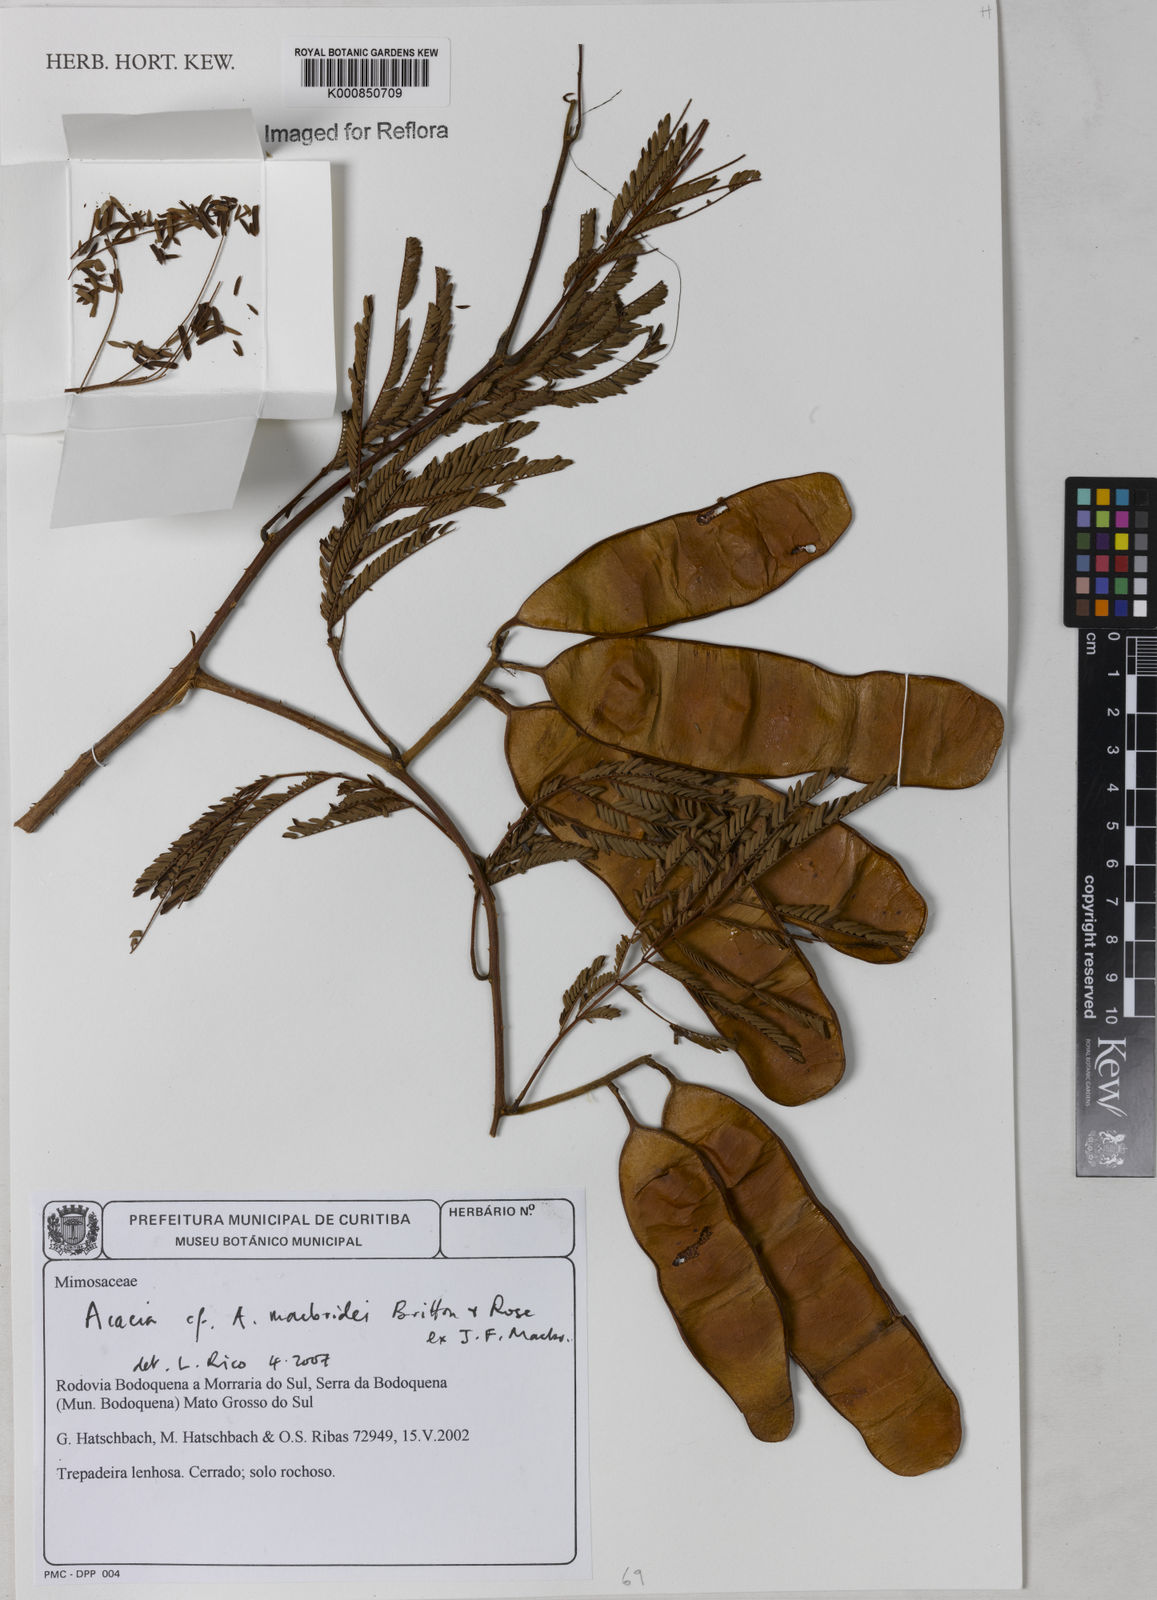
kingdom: Plantae
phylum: Tracheophyta
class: Magnoliopsida
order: Fabales
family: Fabaceae
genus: Senegalia
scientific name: Senegalia macbridei
